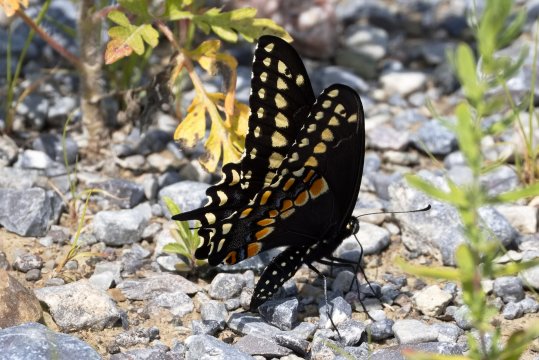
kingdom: Animalia
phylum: Arthropoda
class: Insecta
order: Lepidoptera
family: Papilionidae
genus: Papilio
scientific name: Papilio polyxenes
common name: Black Swallowtail
